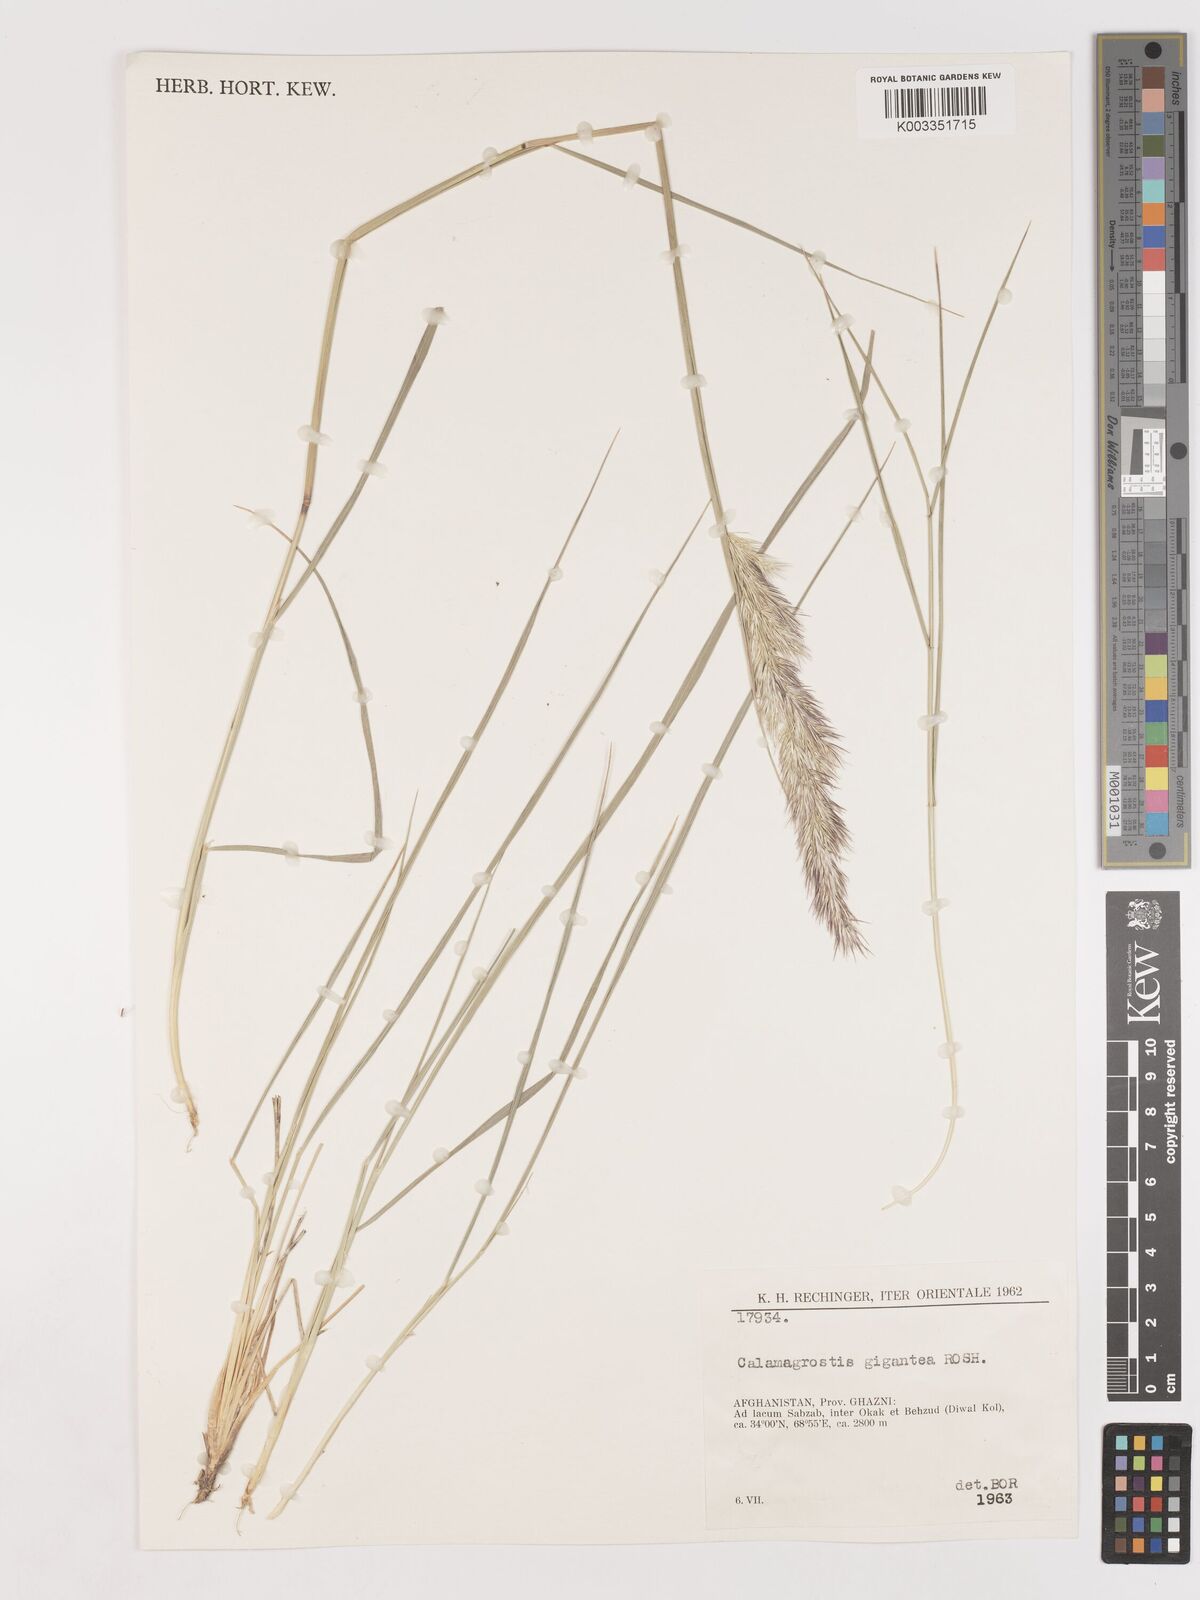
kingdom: Plantae
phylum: Tracheophyta
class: Liliopsida
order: Poales
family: Poaceae
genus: Calamagrostis
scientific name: Calamagrostis epigejos
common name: Wood small-reed
